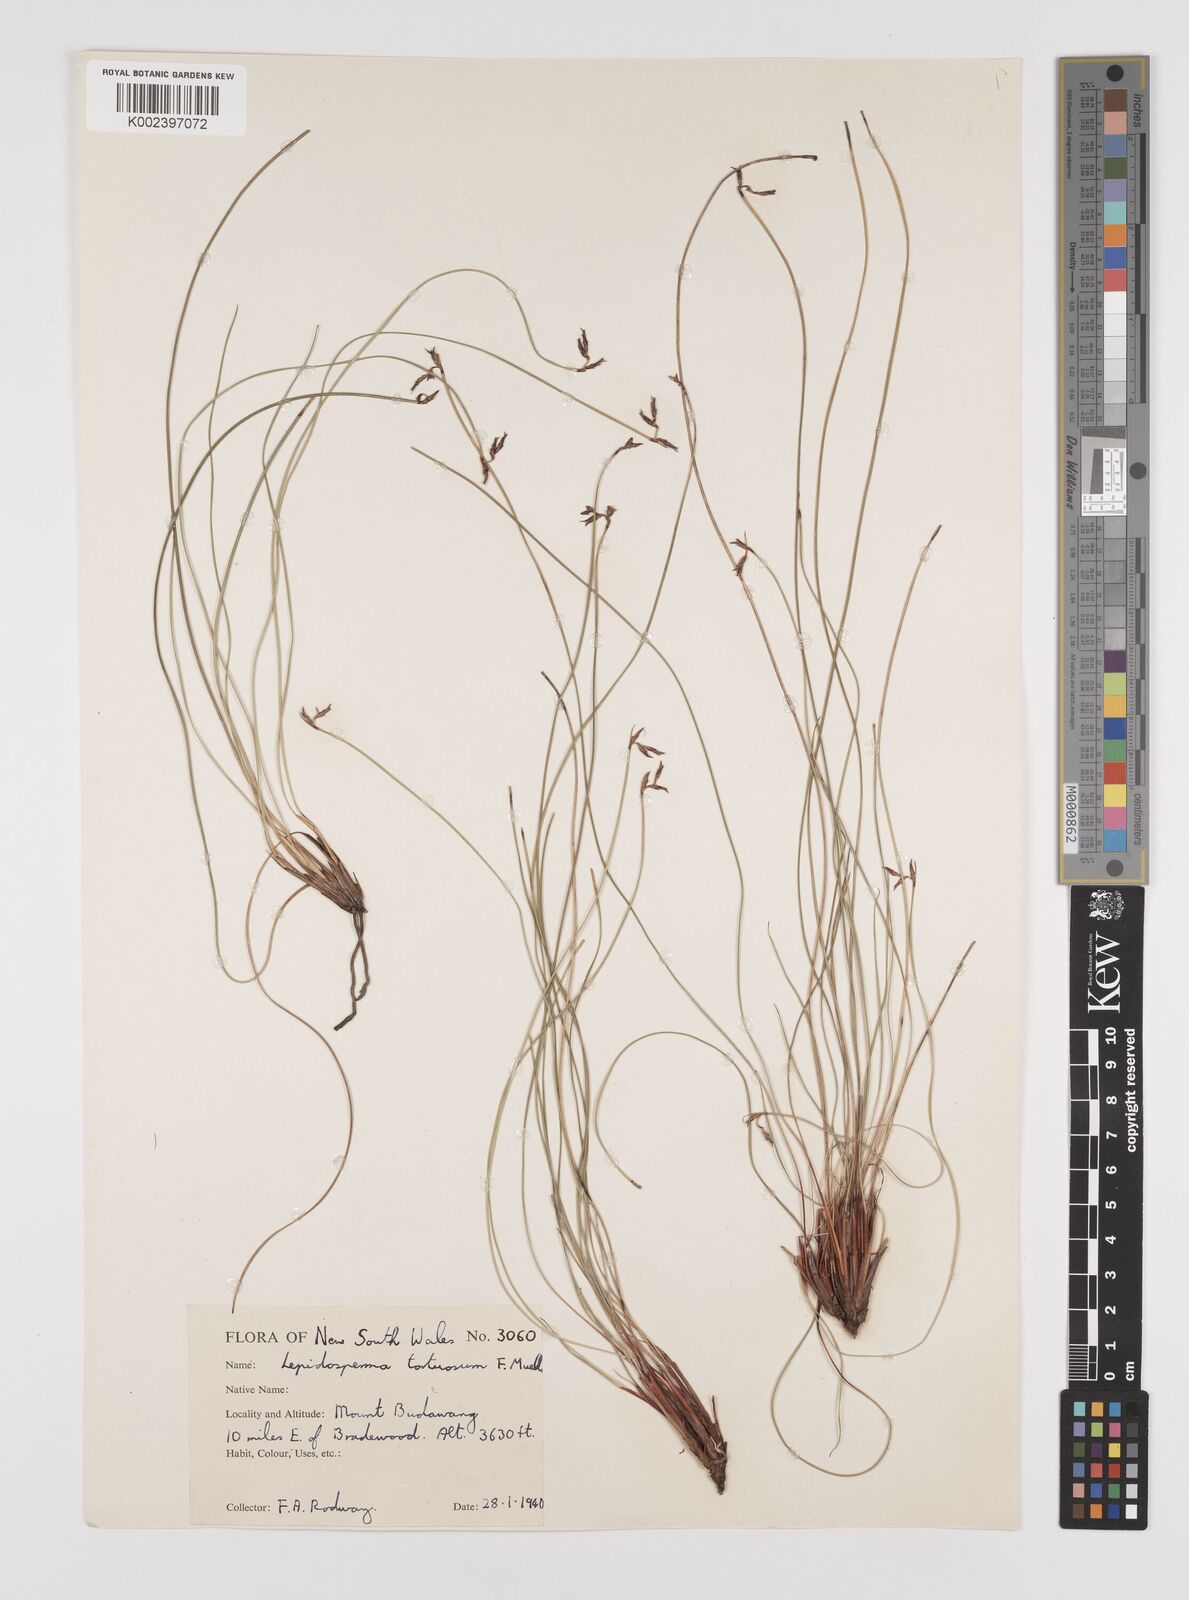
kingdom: Plantae
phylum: Tracheophyta
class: Liliopsida
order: Poales
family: Cyperaceae
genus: Lepidosperma
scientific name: Lepidosperma tortuosum
